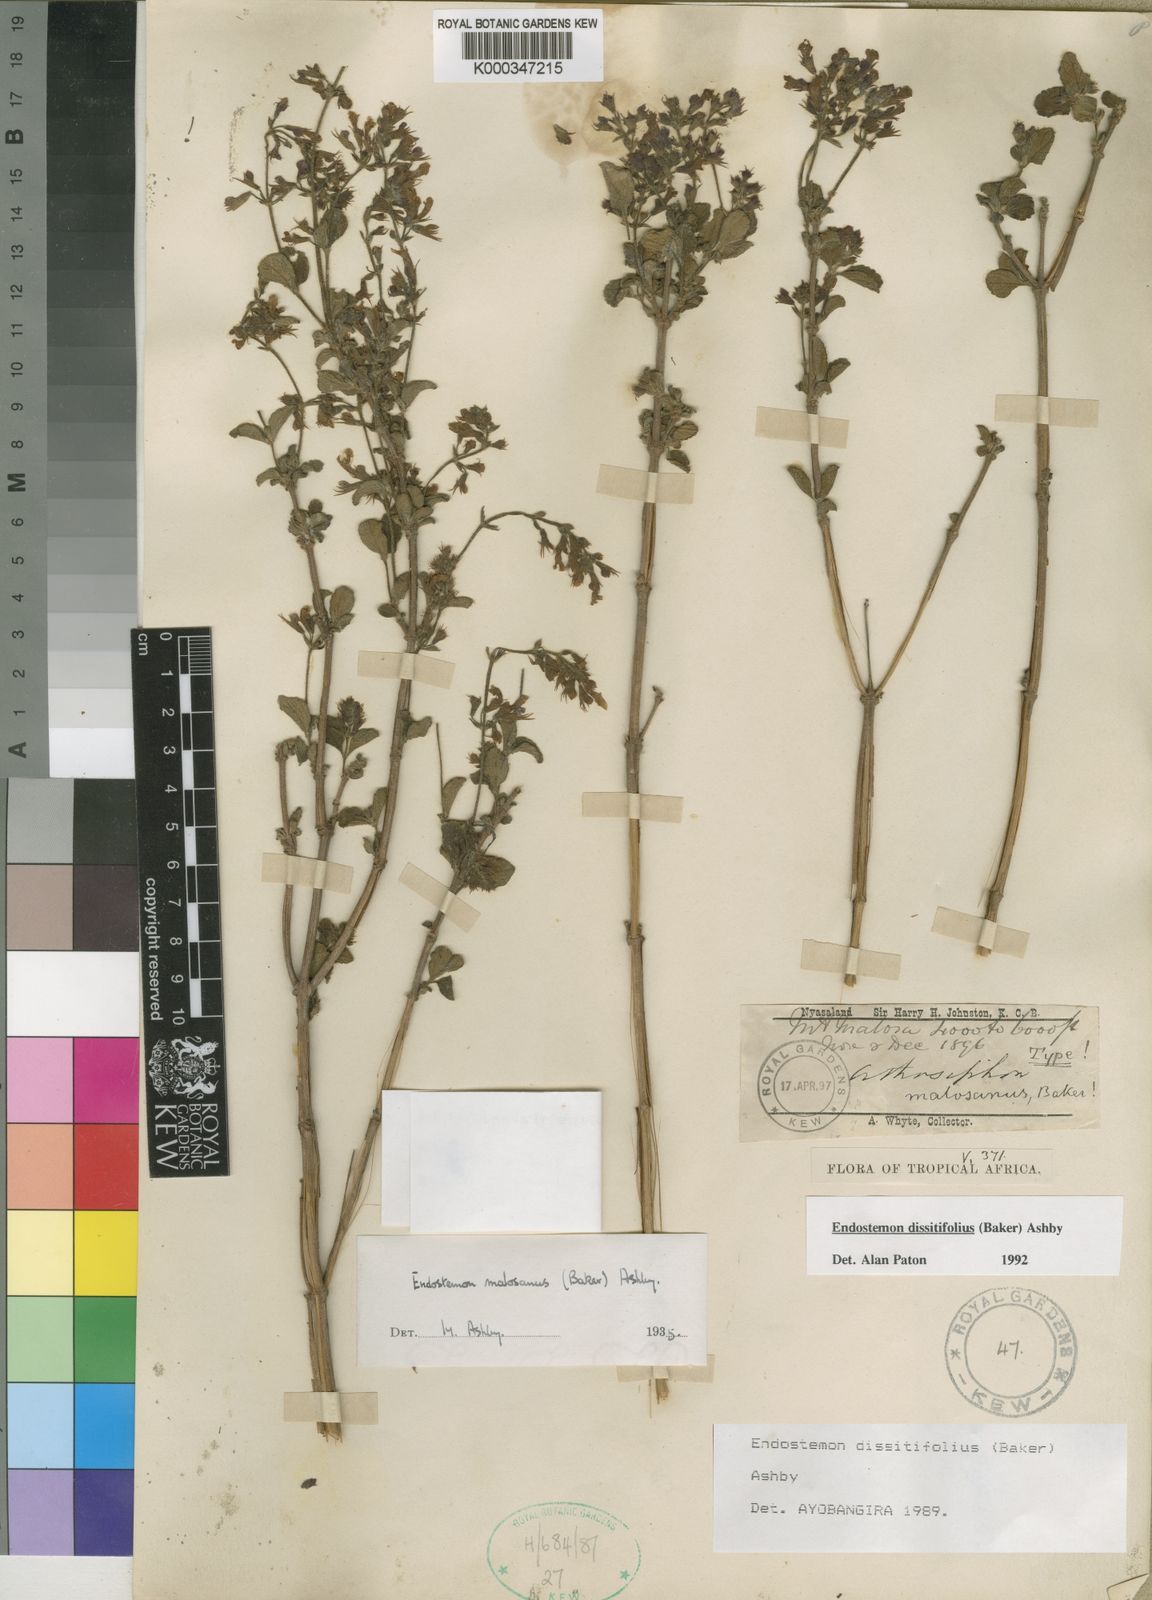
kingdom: Plantae
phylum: Tracheophyta
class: Magnoliopsida
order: Lamiales
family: Lamiaceae
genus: Endostemon
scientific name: Endostemon villosus
